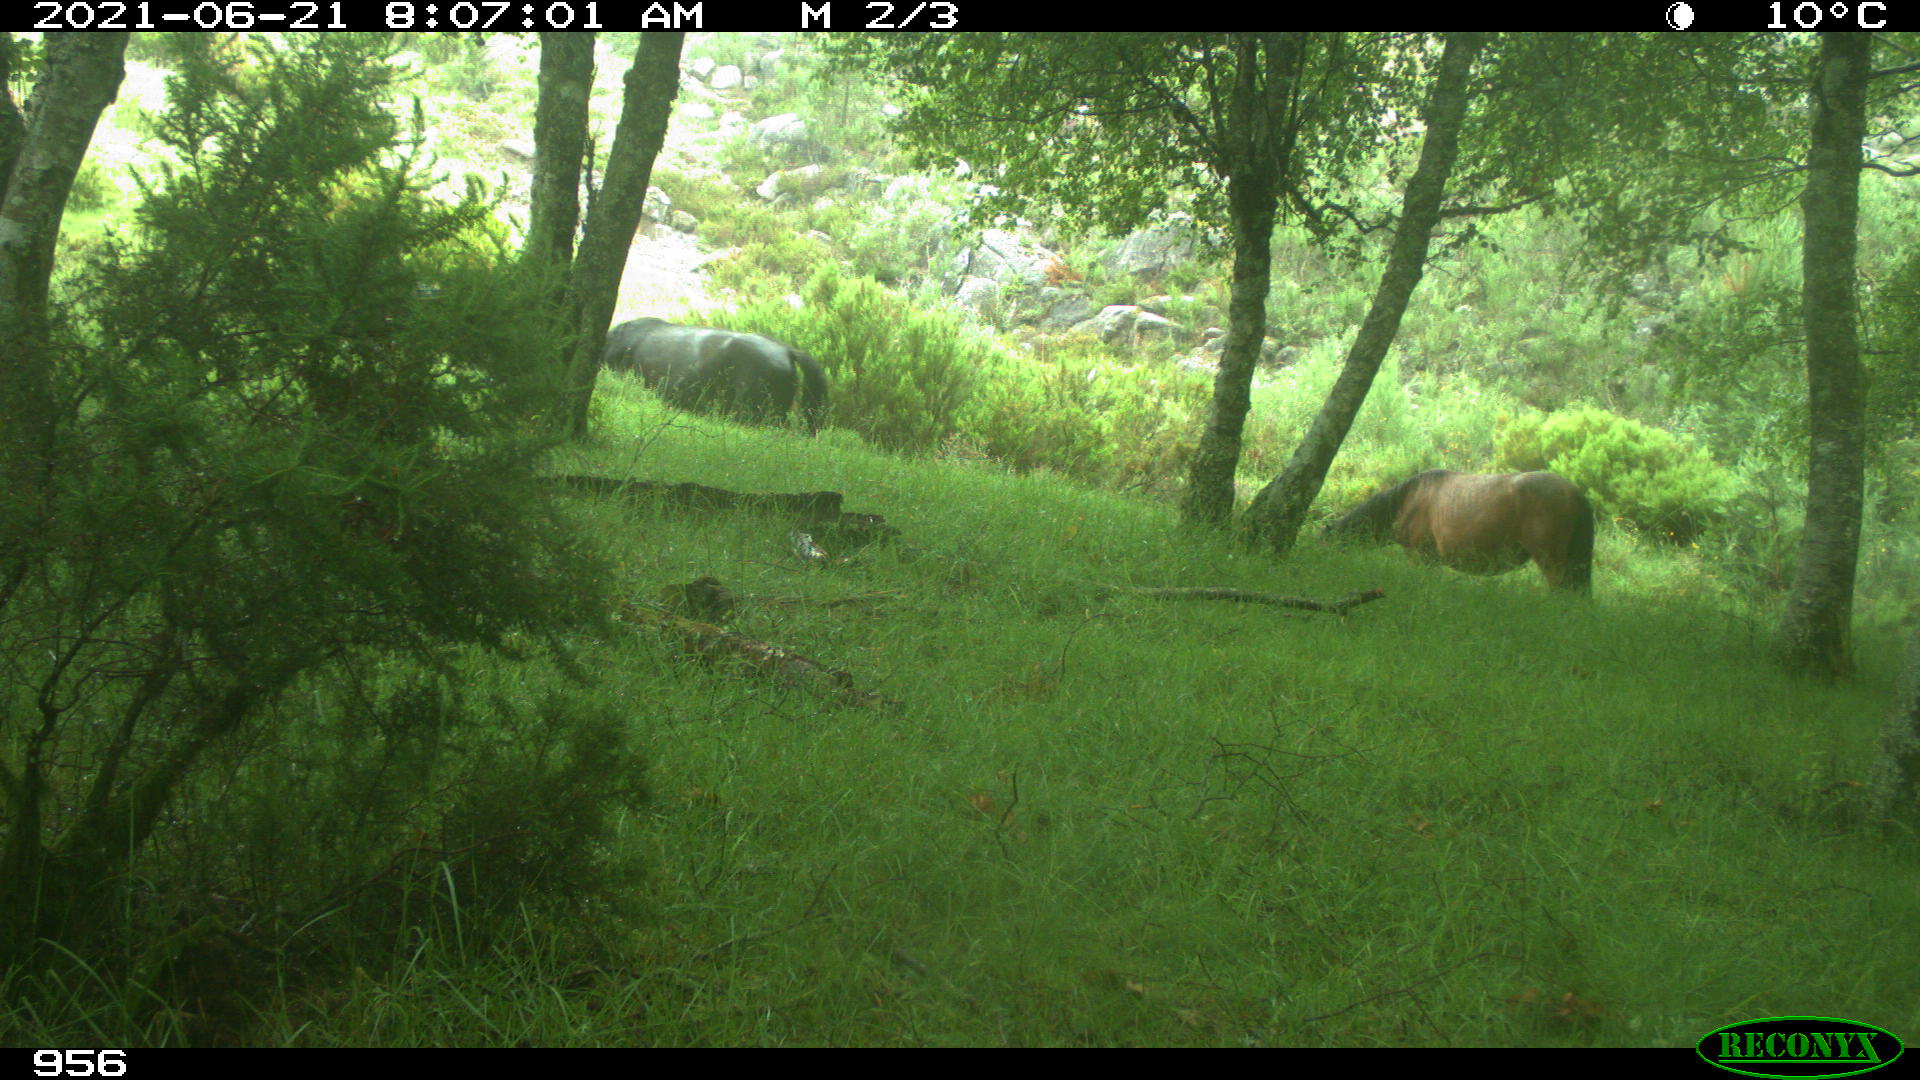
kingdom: Animalia
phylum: Chordata
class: Mammalia
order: Perissodactyla
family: Equidae
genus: Equus
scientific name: Equus caballus
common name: Horse
